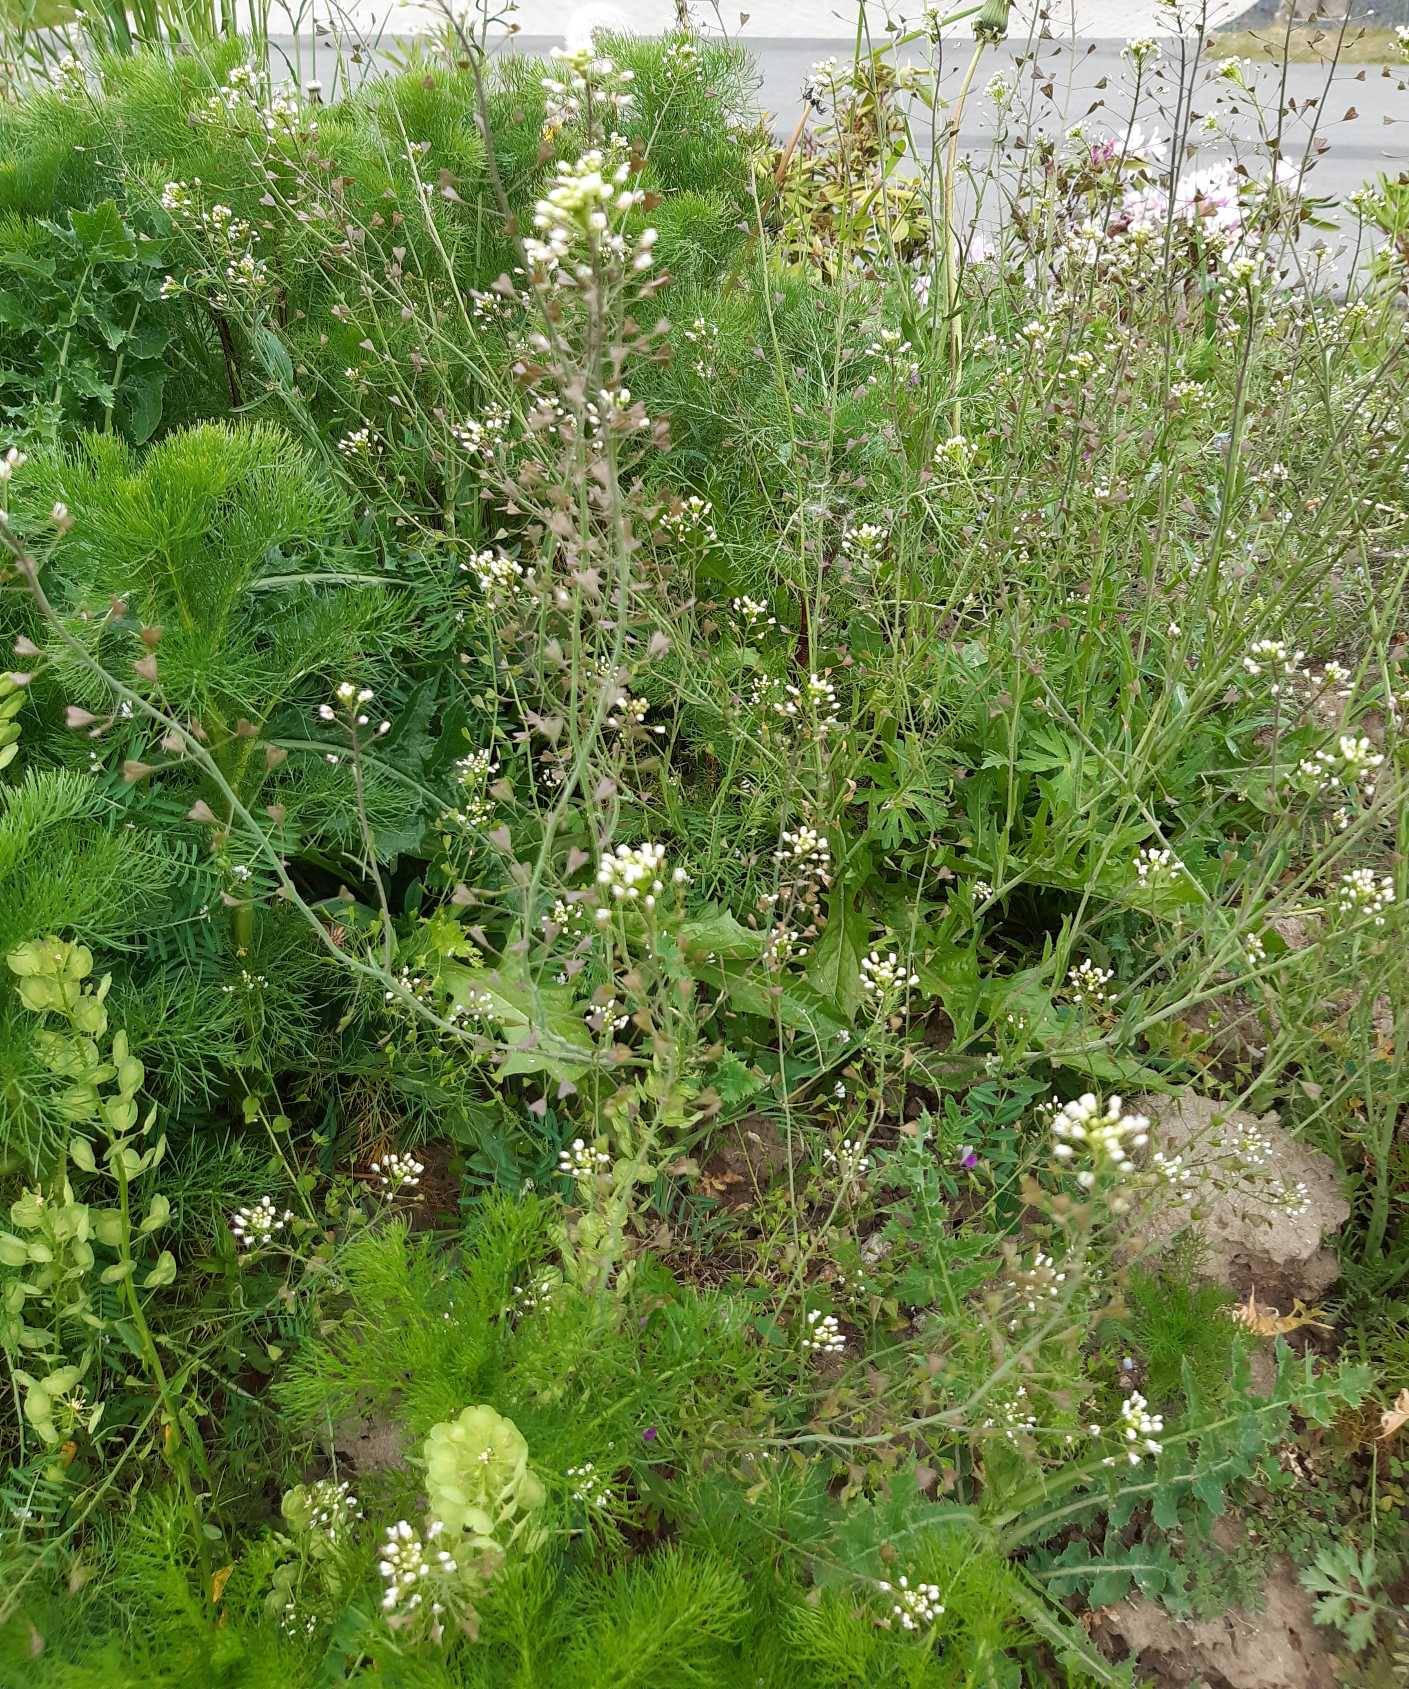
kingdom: Plantae
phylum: Tracheophyta
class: Magnoliopsida
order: Brassicales
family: Brassicaceae
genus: Capsella
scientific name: Capsella bursa-pastoris
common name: Hyrdetaske
